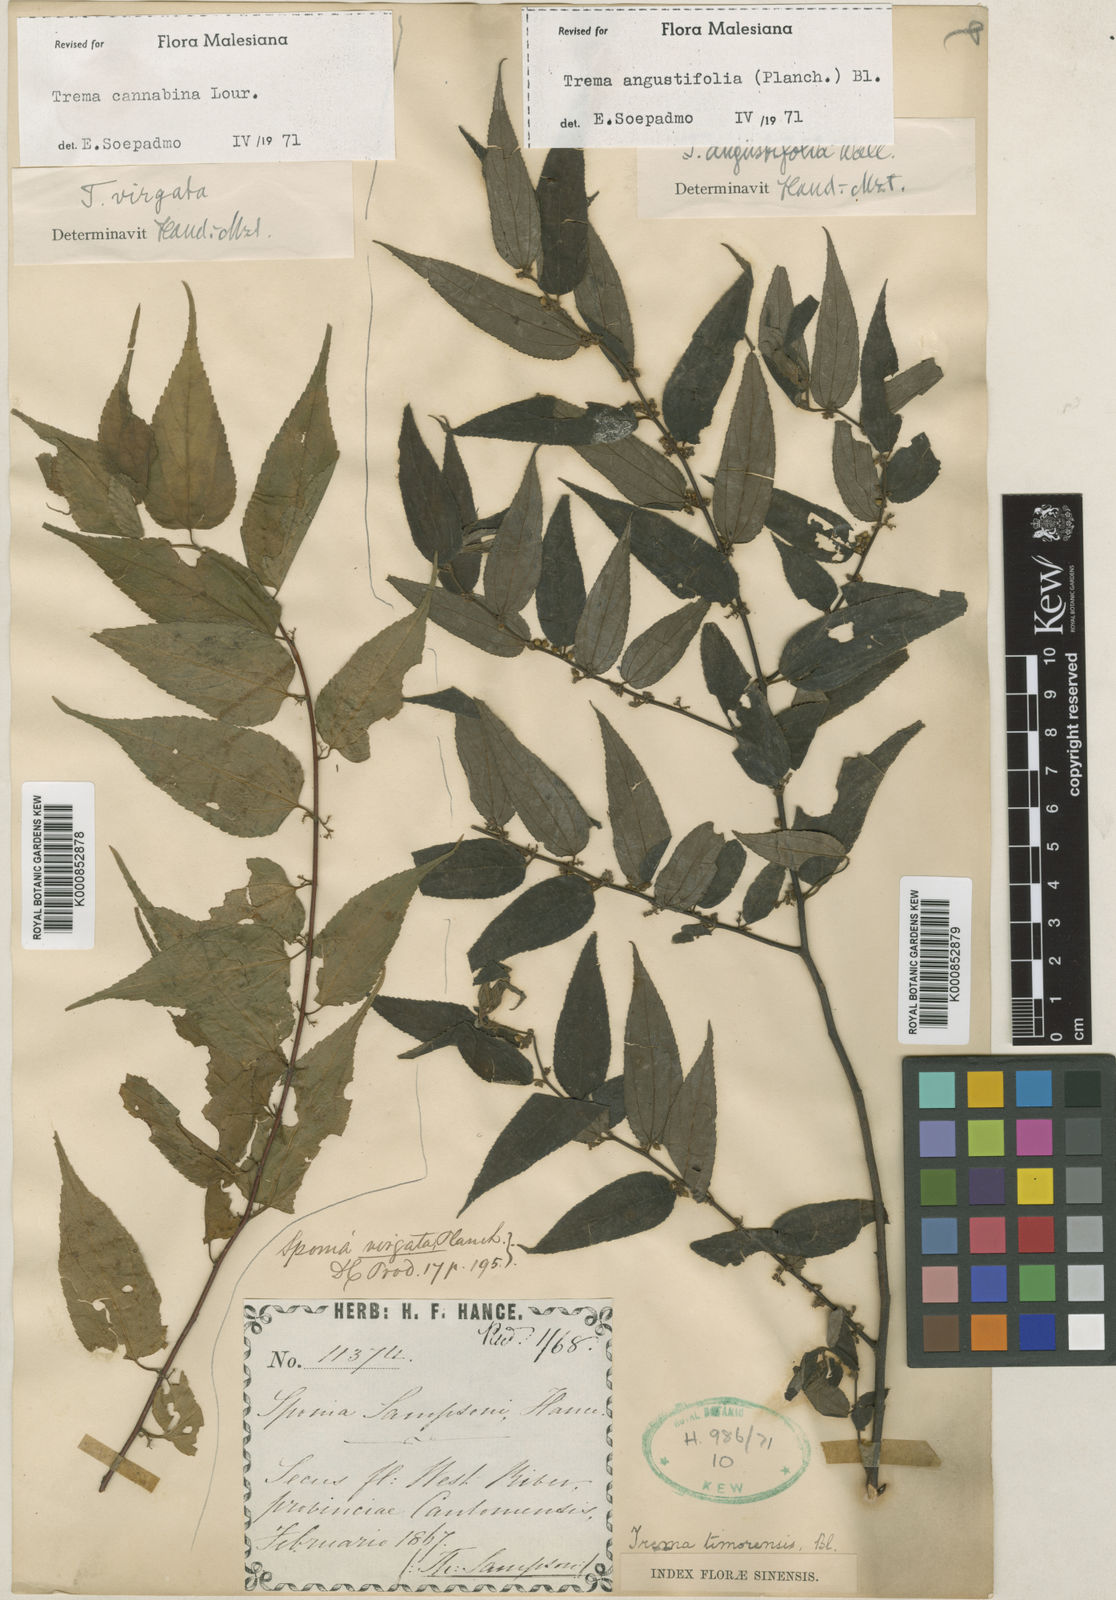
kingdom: Plantae
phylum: Tracheophyta
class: Magnoliopsida
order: Rosales
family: Cannabaceae
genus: Trema
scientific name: Trema angustifolium
